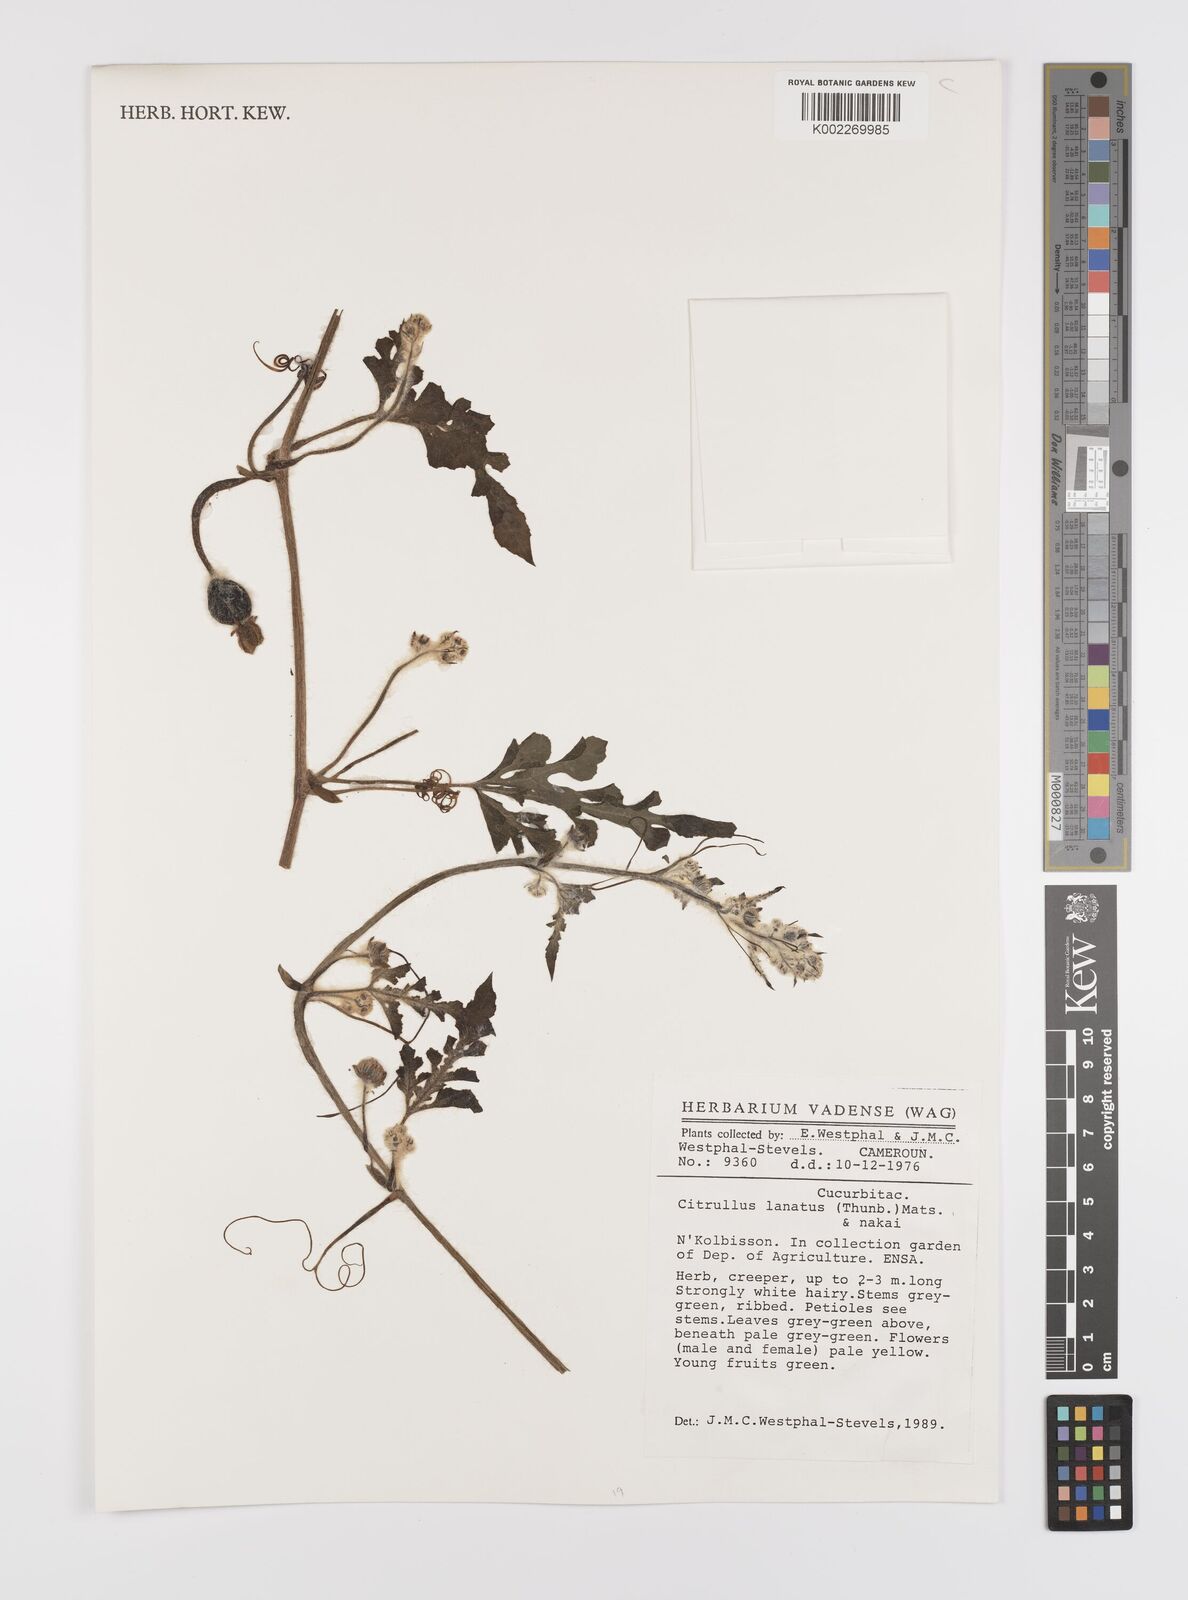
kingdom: Plantae
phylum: Tracheophyta
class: Magnoliopsida
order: Cucurbitales
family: Cucurbitaceae
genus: Citrullus
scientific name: Citrullus lanatus
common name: Watermelon
